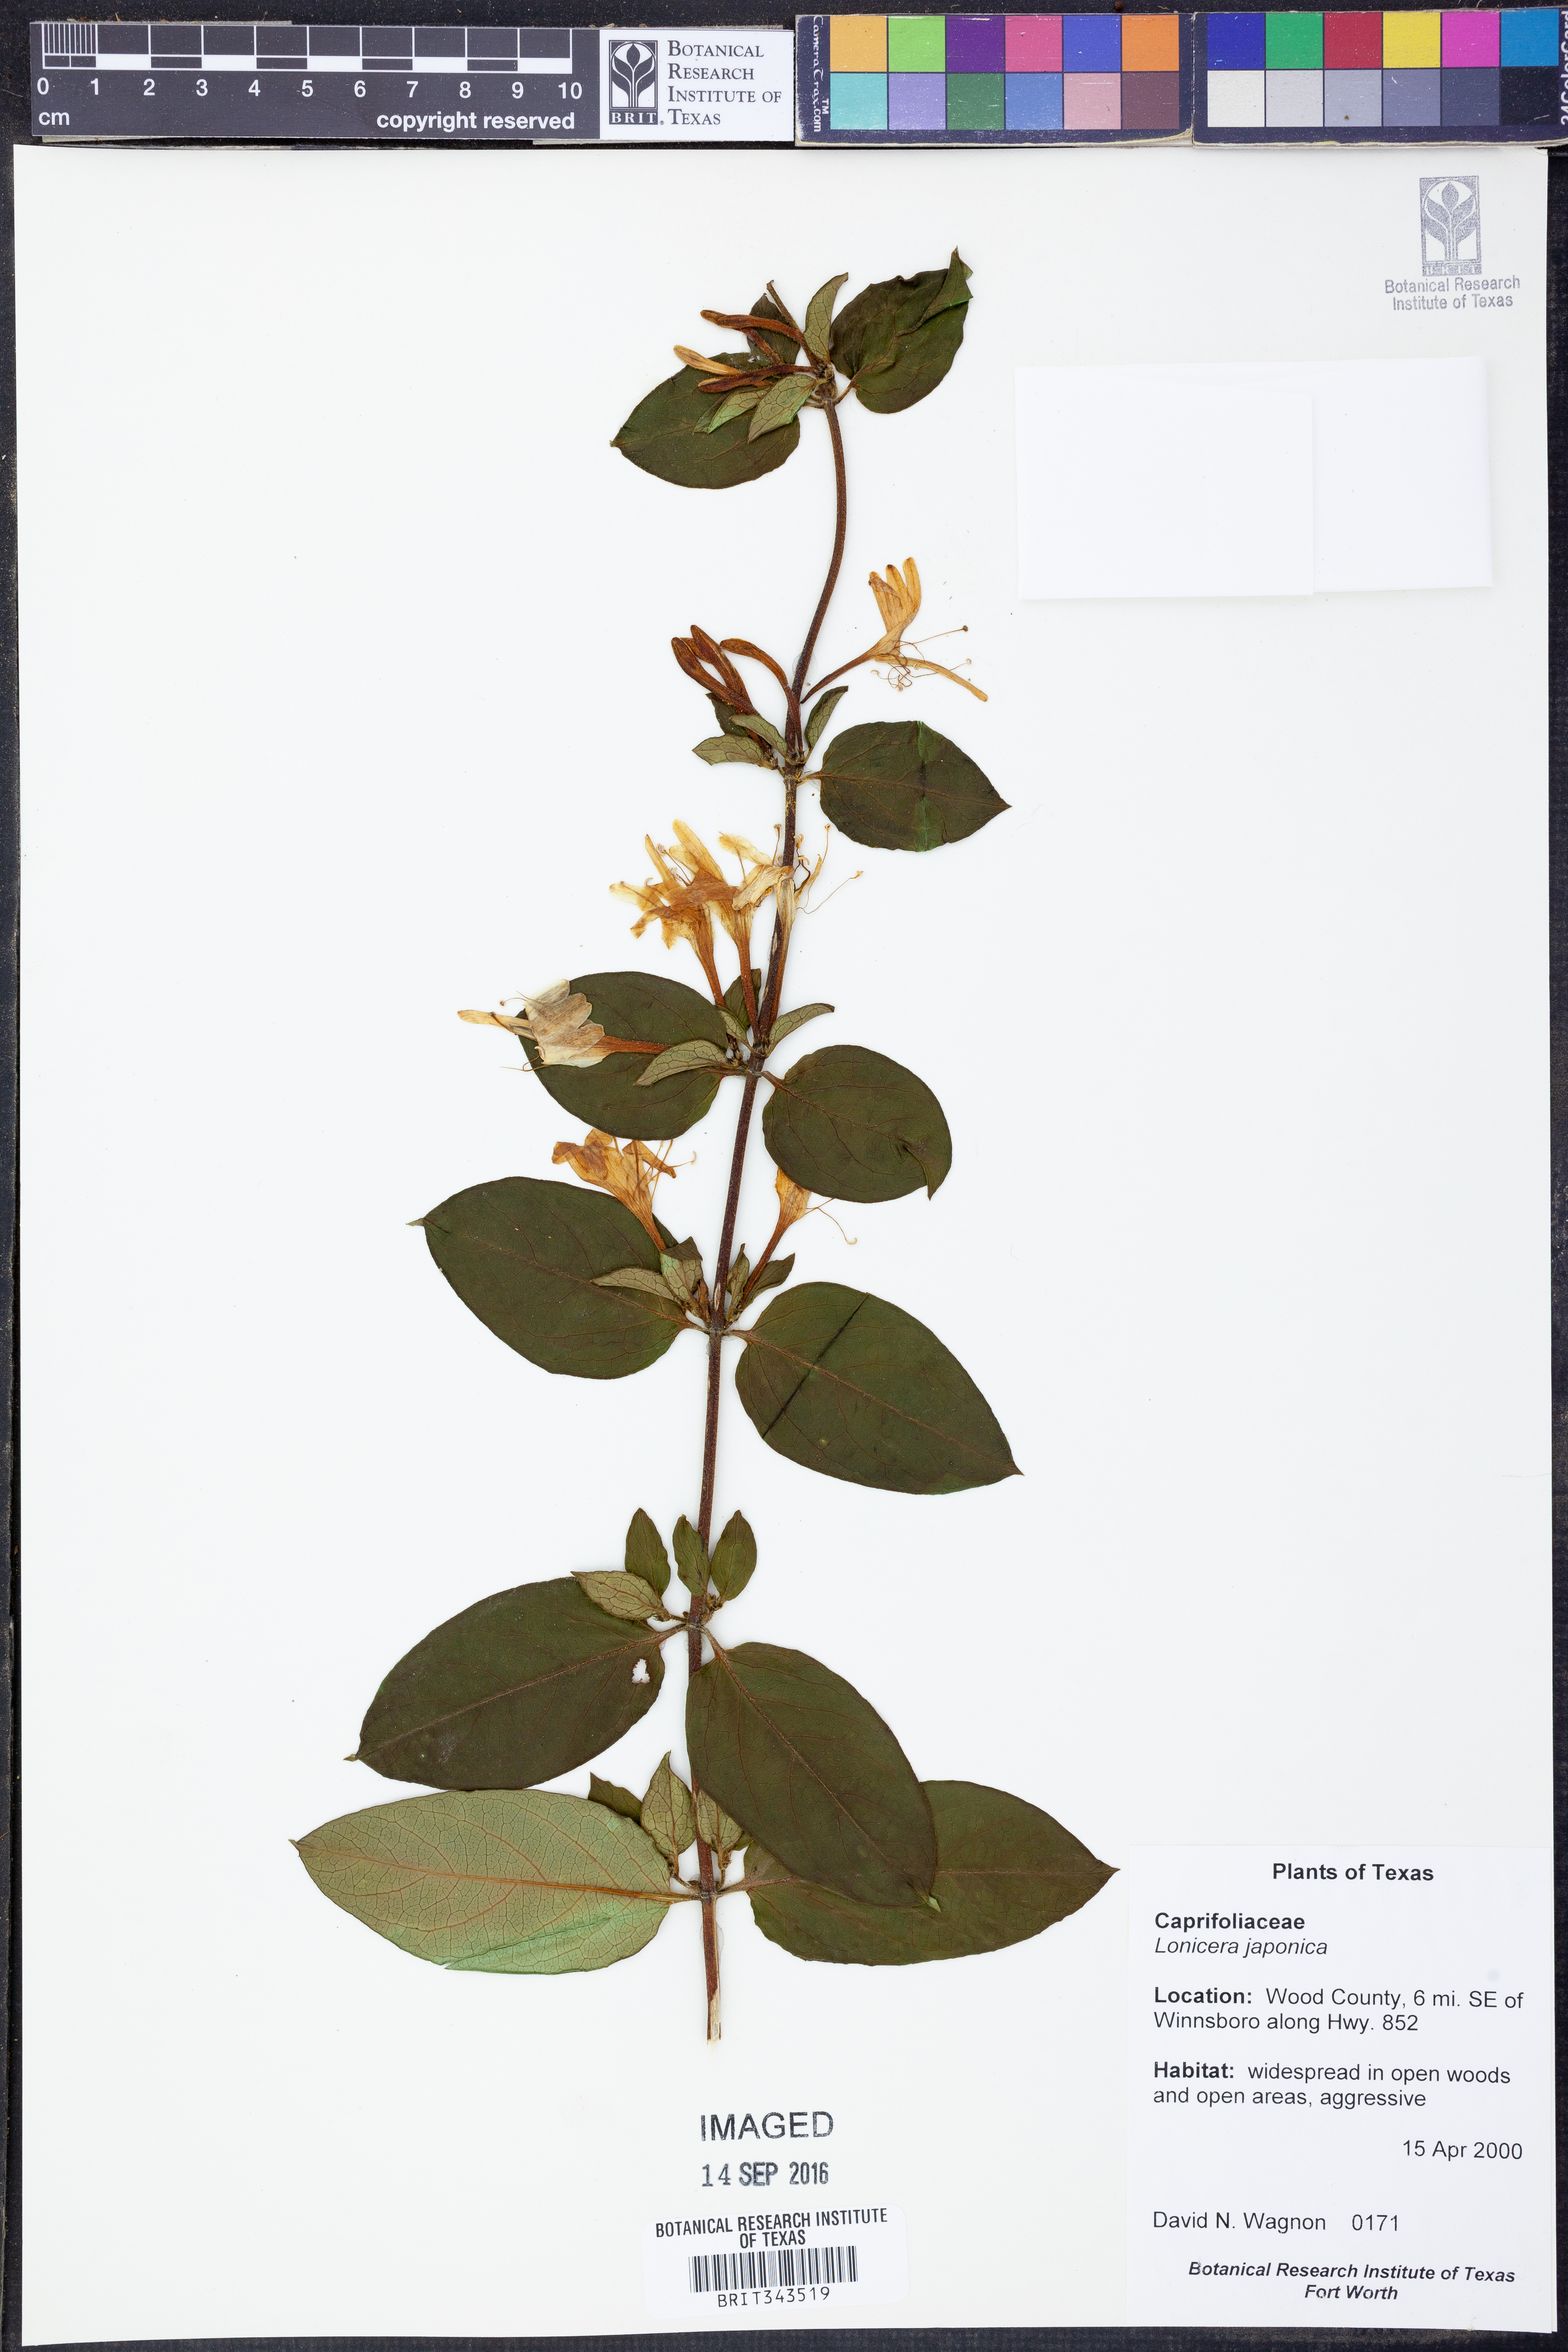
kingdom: Plantae
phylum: Tracheophyta
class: Magnoliopsida
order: Dipsacales
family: Caprifoliaceae
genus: Lonicera
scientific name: Lonicera japonica
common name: Japanese honeysuckle
